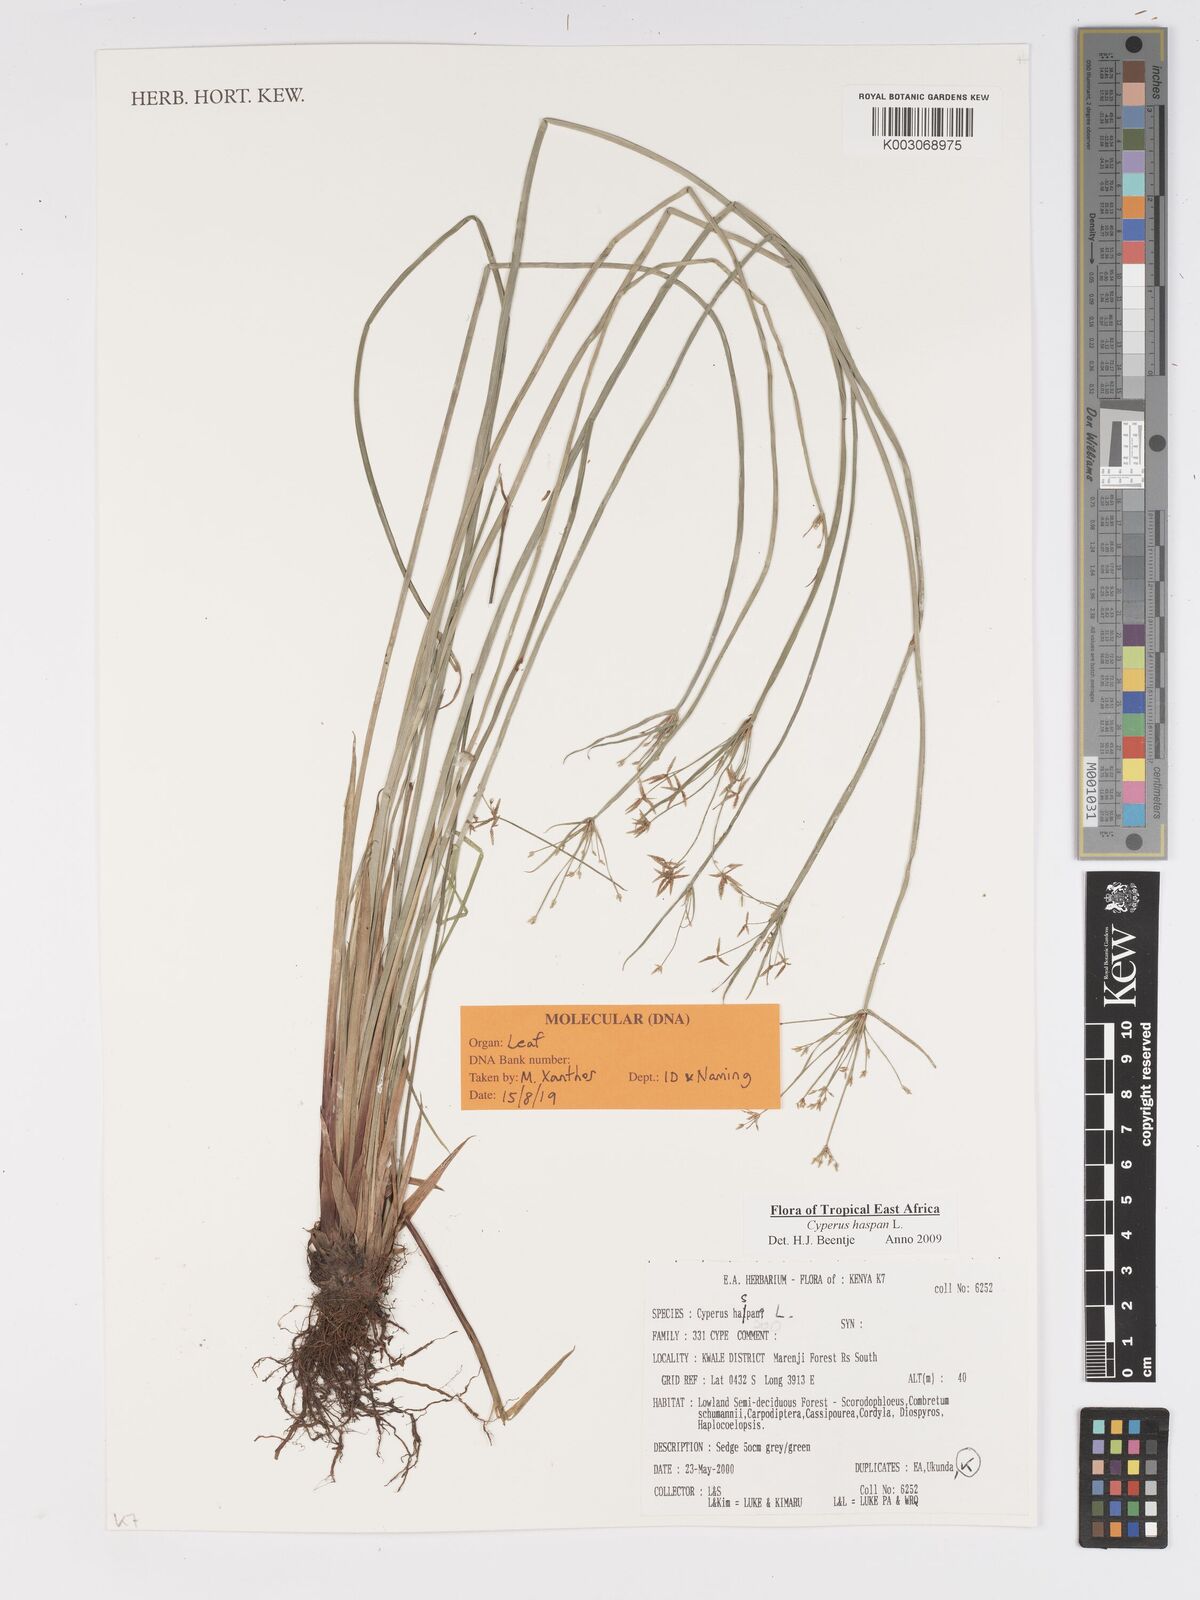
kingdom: Plantae
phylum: Tracheophyta
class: Liliopsida
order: Poales
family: Cyperaceae
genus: Cyperus
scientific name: Cyperus haspan
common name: Haspan flatsedge
